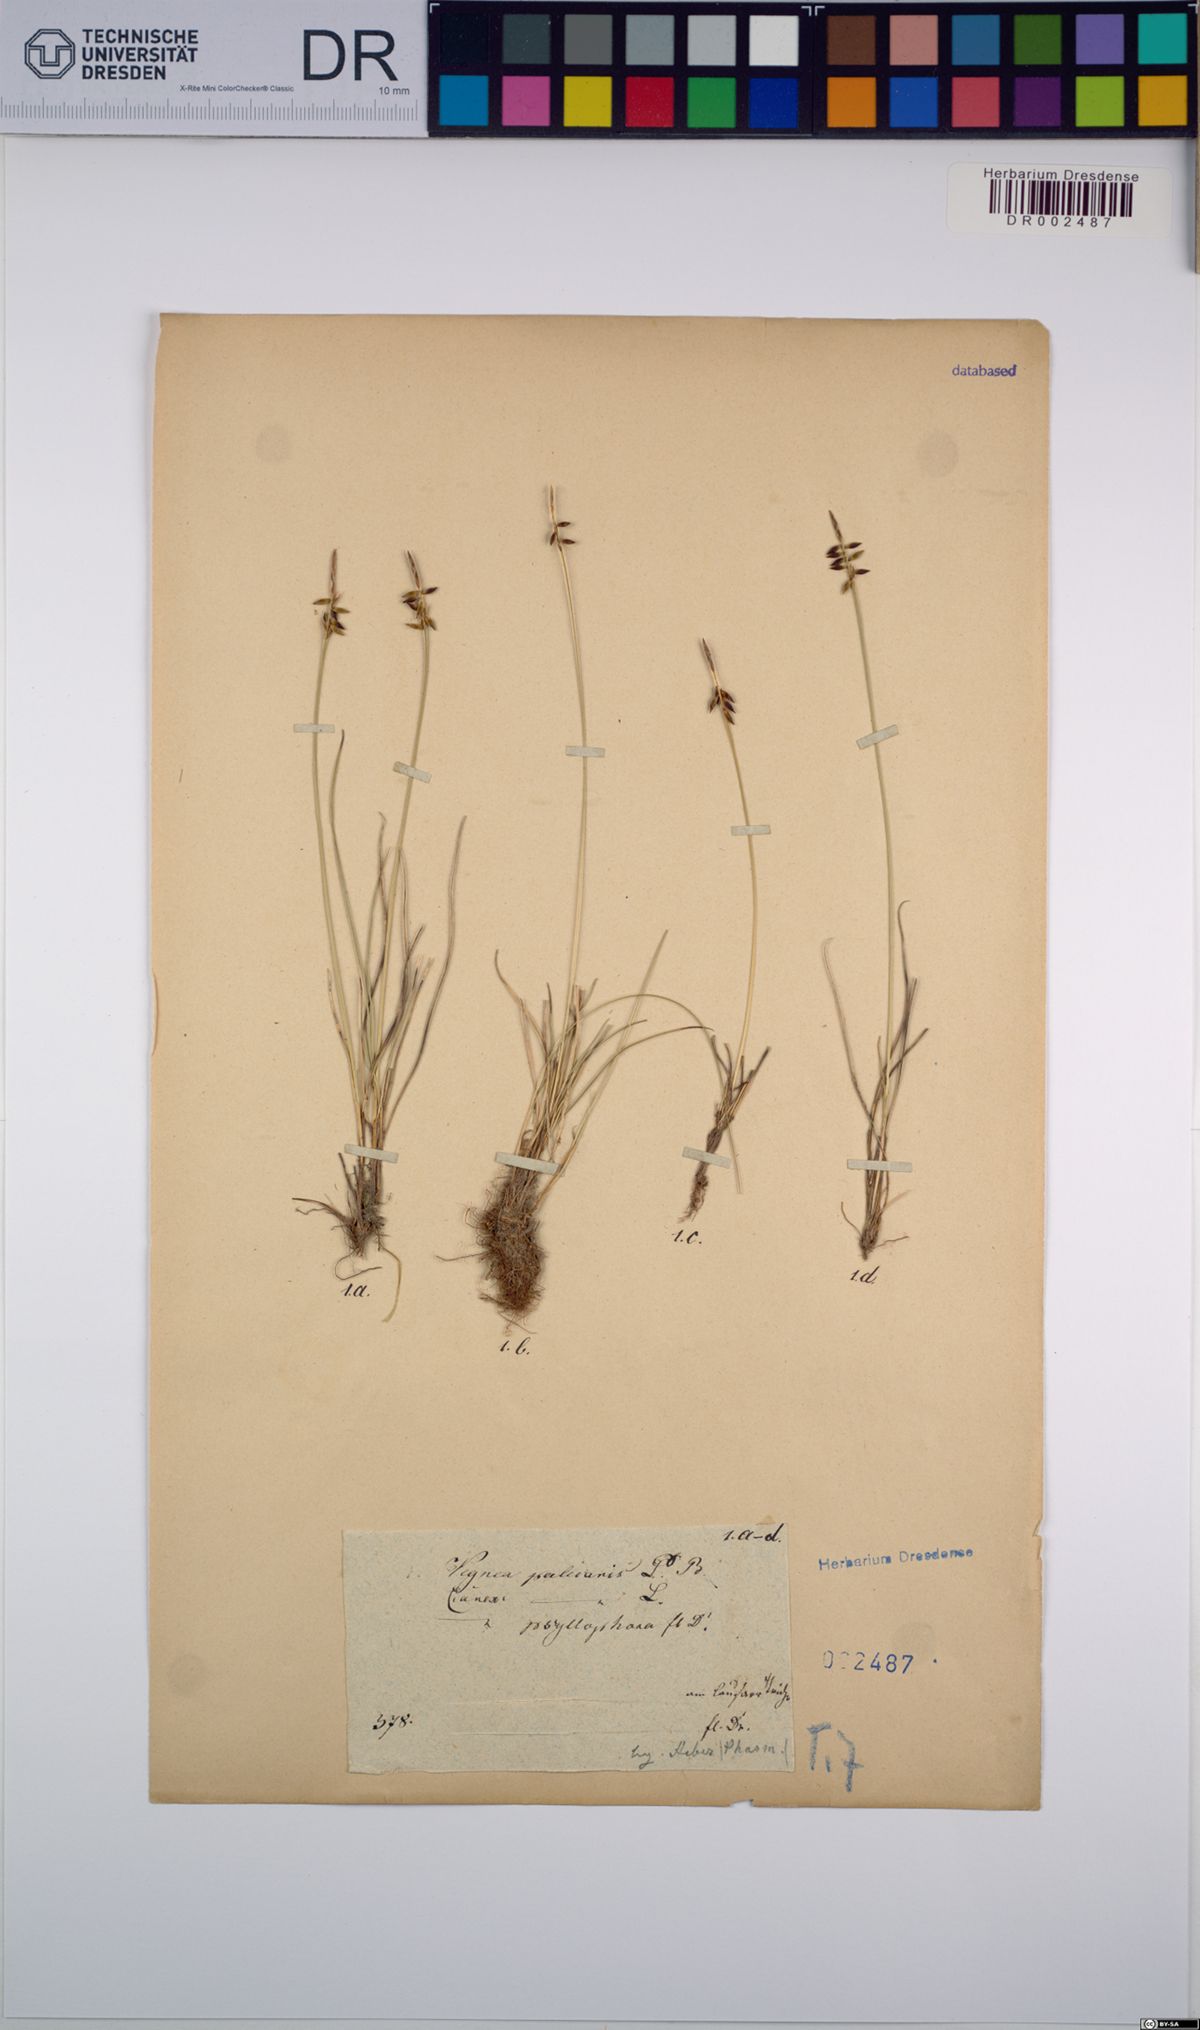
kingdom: Plantae
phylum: Tracheophyta
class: Liliopsida
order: Poales
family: Cyperaceae
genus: Carex
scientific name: Carex pulicaris
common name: Flea sedge
